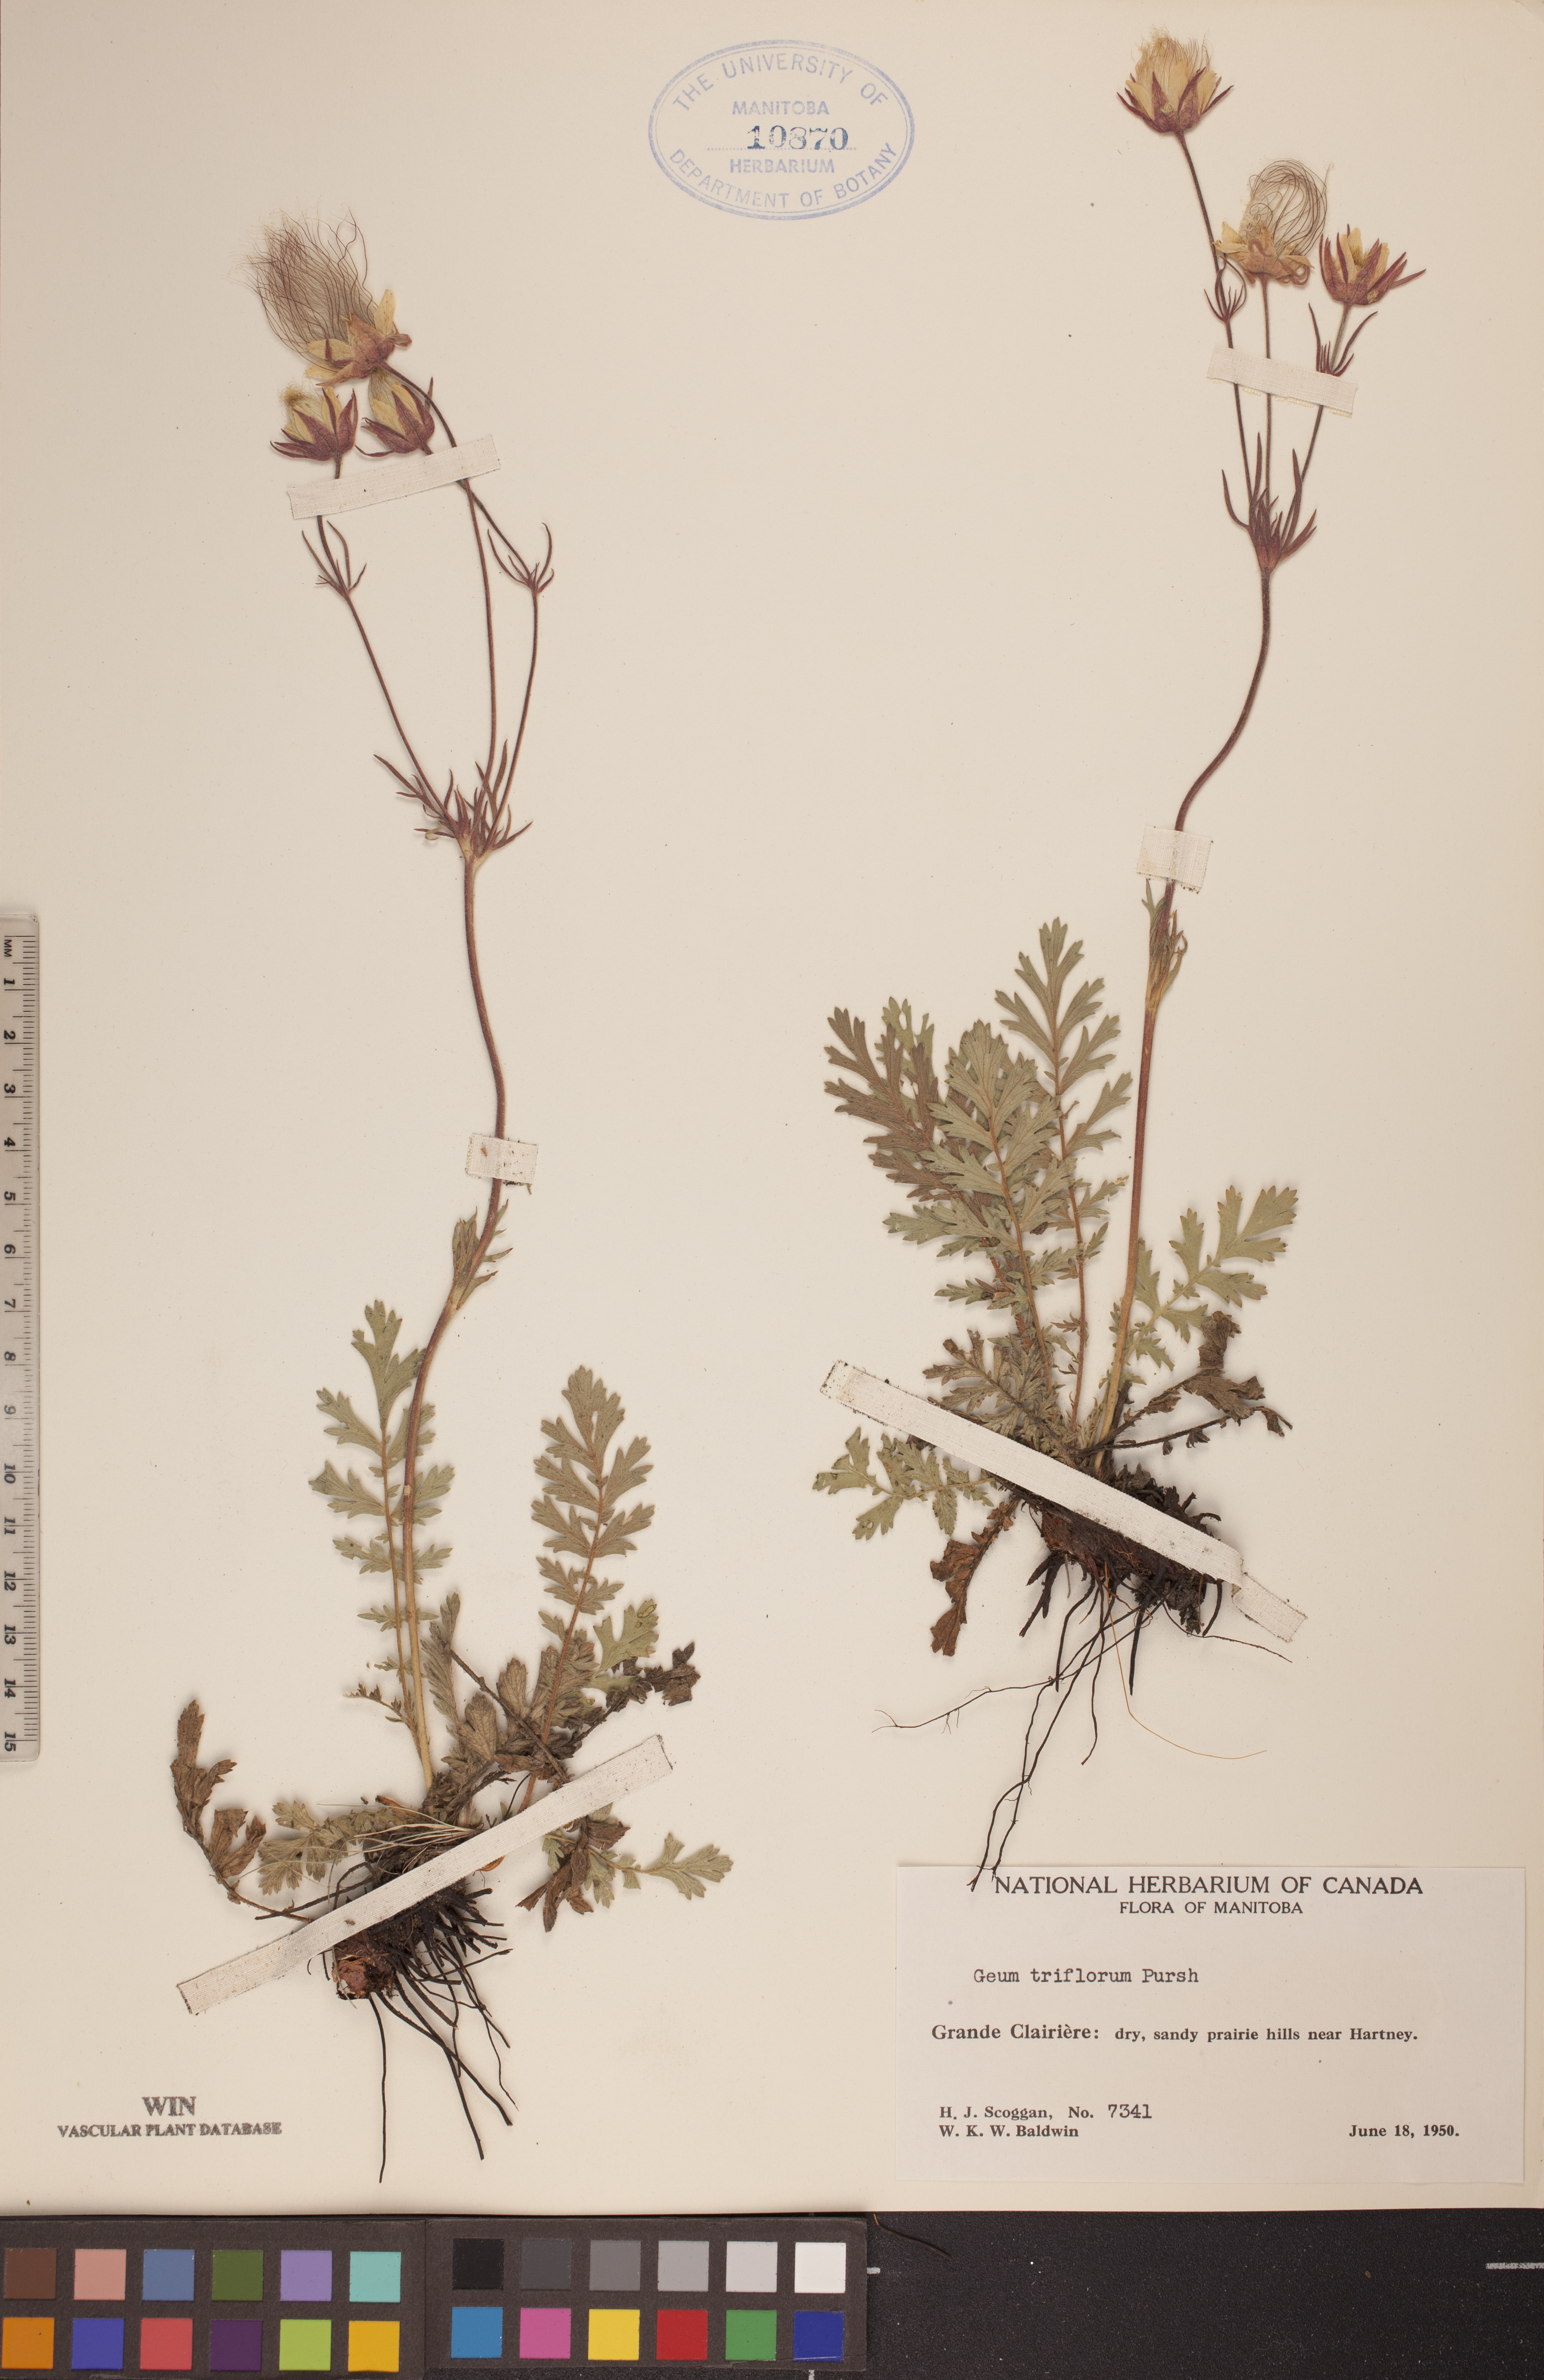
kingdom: Plantae
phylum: Tracheophyta
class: Magnoliopsida
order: Rosales
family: Rosaceae
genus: Geum
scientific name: Geum triflorum
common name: Old man's whiskers
